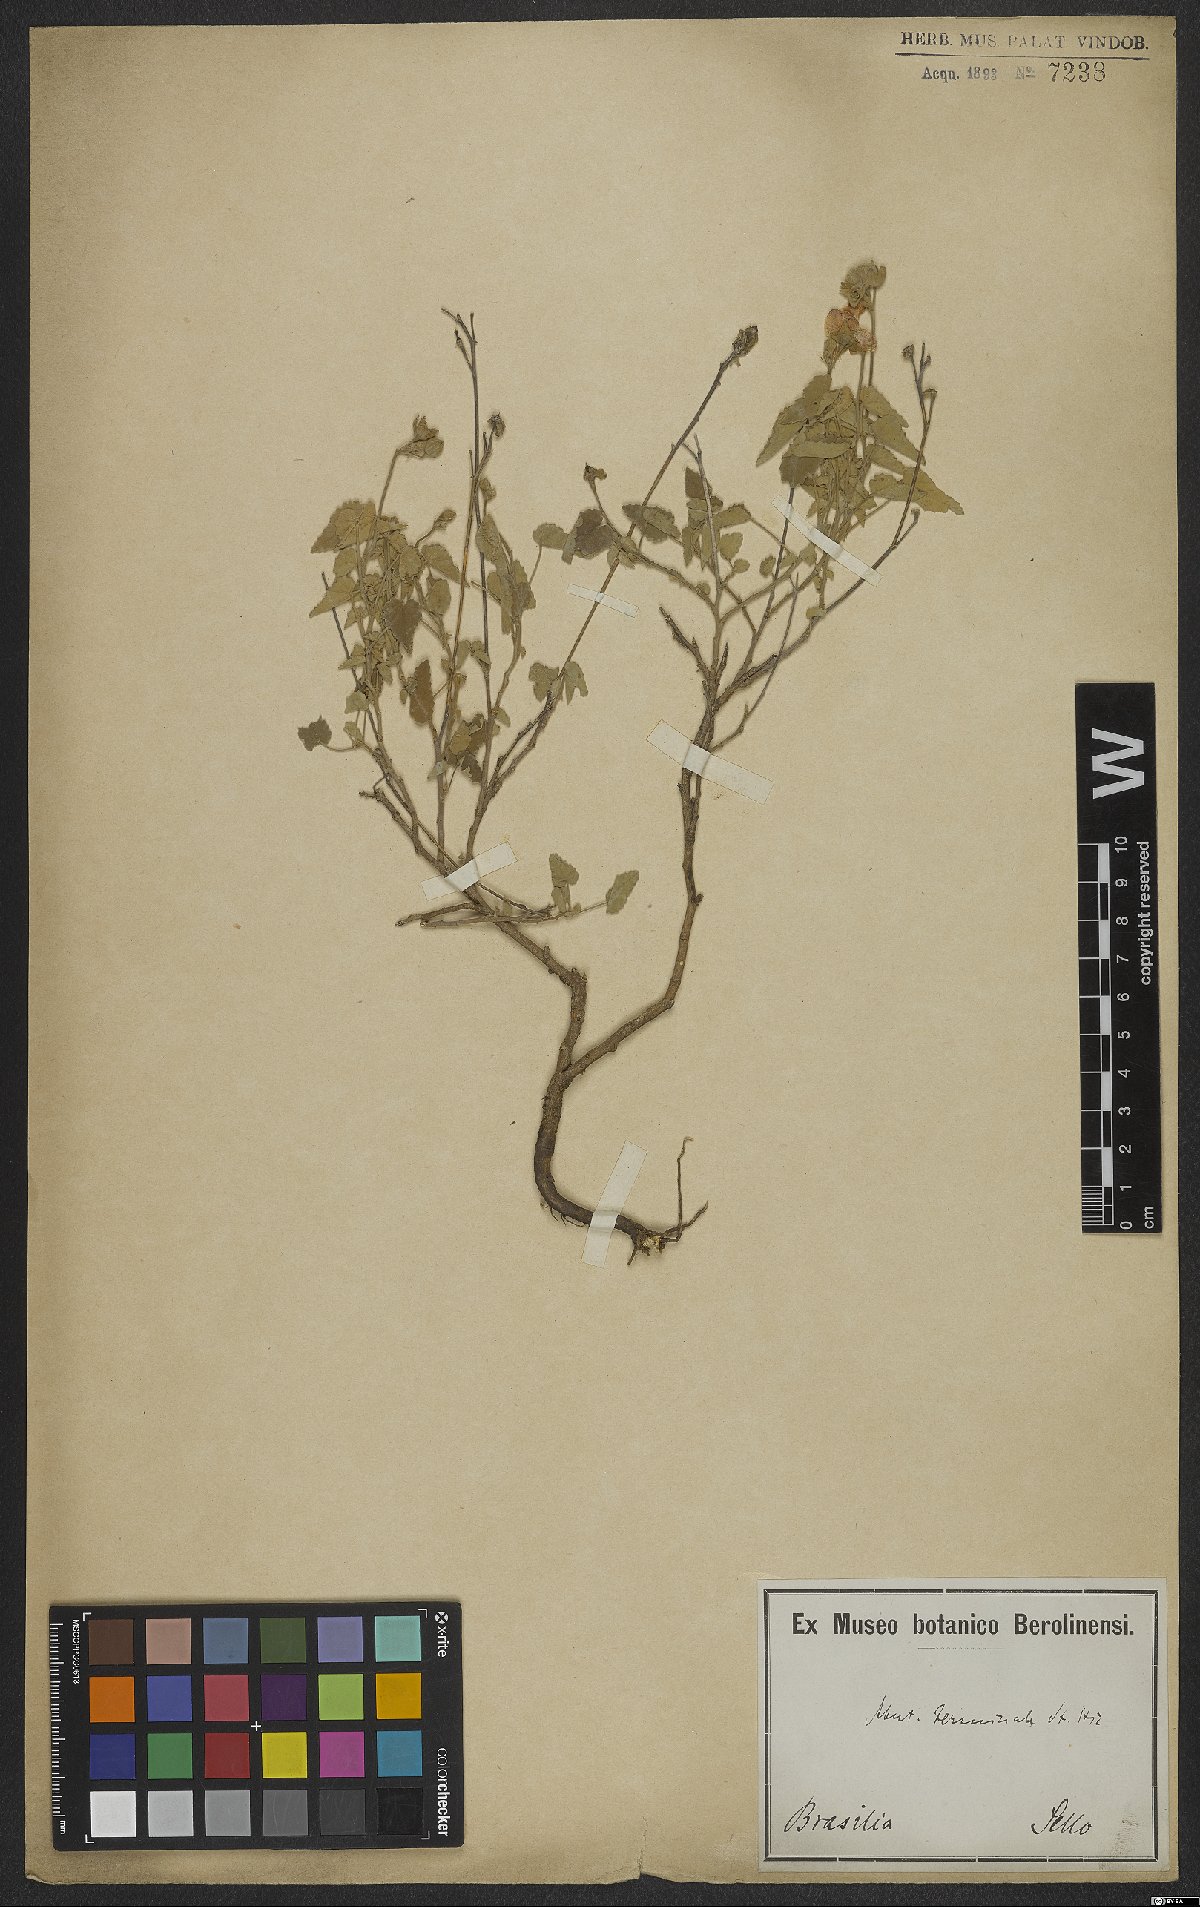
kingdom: Plantae
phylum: Tracheophyta
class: Magnoliopsida
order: Malvales
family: Malvaceae
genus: Abutilon
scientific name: Abutilon terminale
